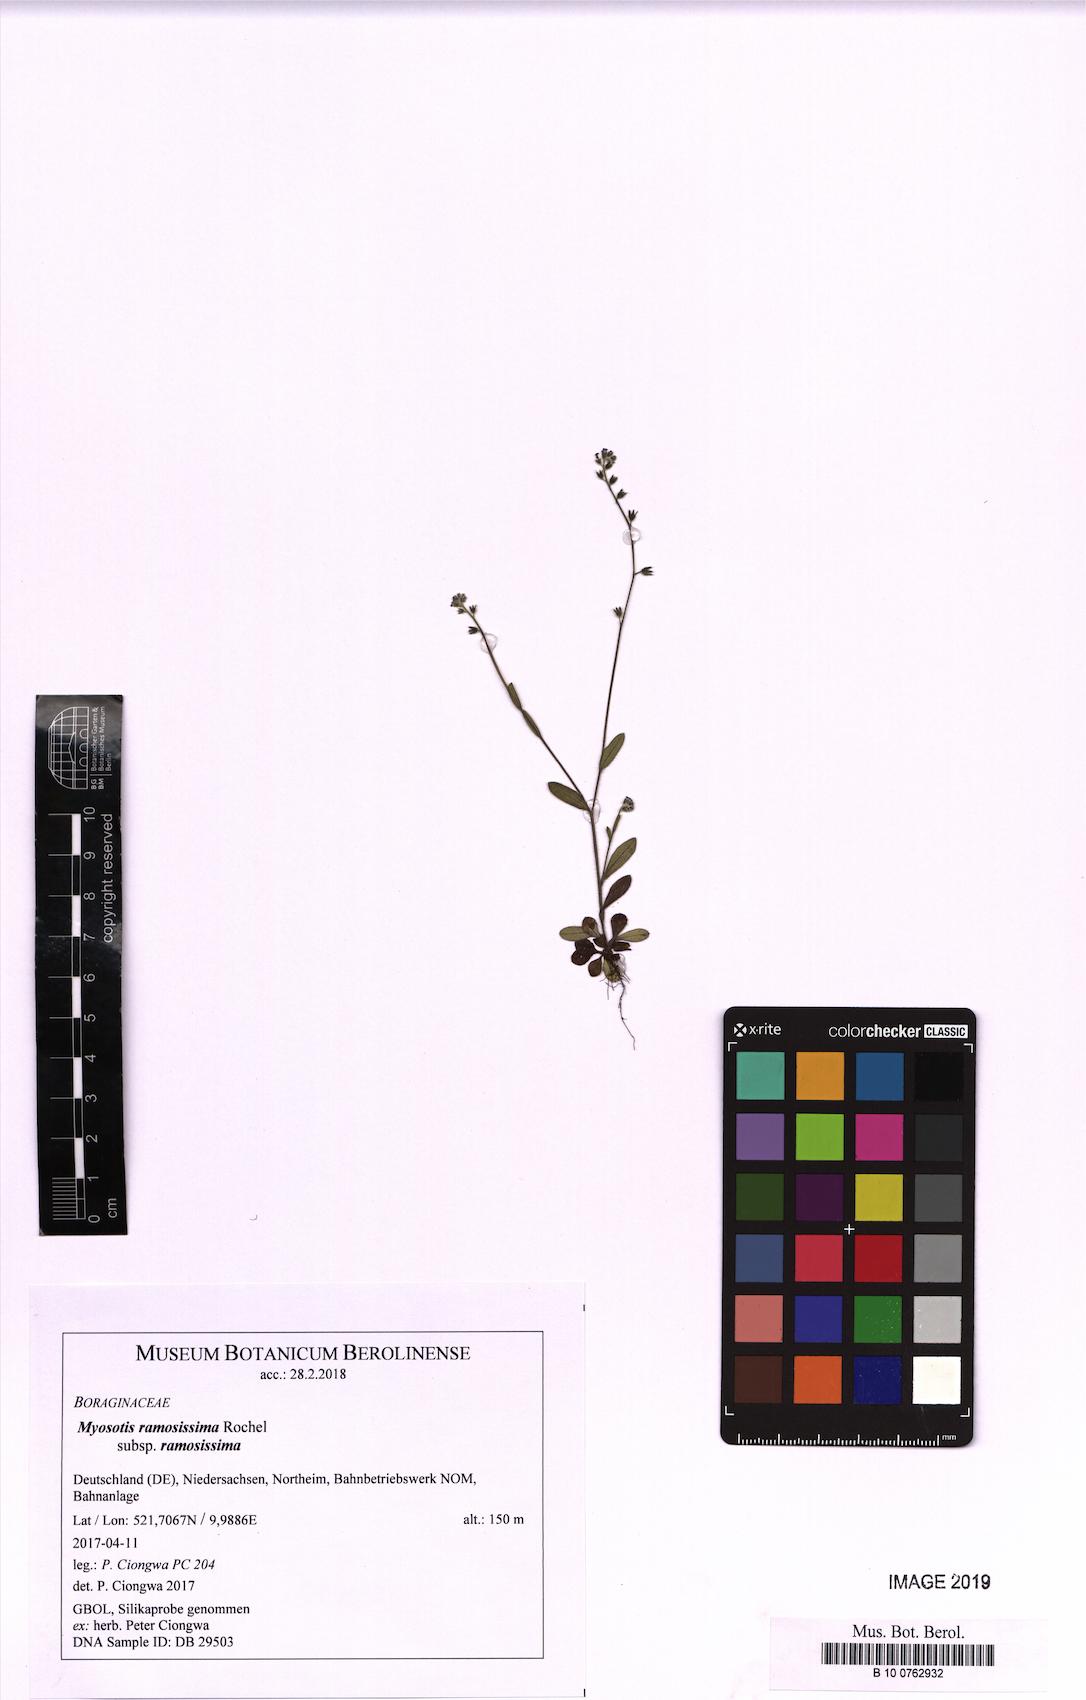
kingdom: Plantae
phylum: Tracheophyta
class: Magnoliopsida
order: Boraginales
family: Boraginaceae
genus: Myosotis
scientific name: Myosotis ramosissima
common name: Early forget-me-not
